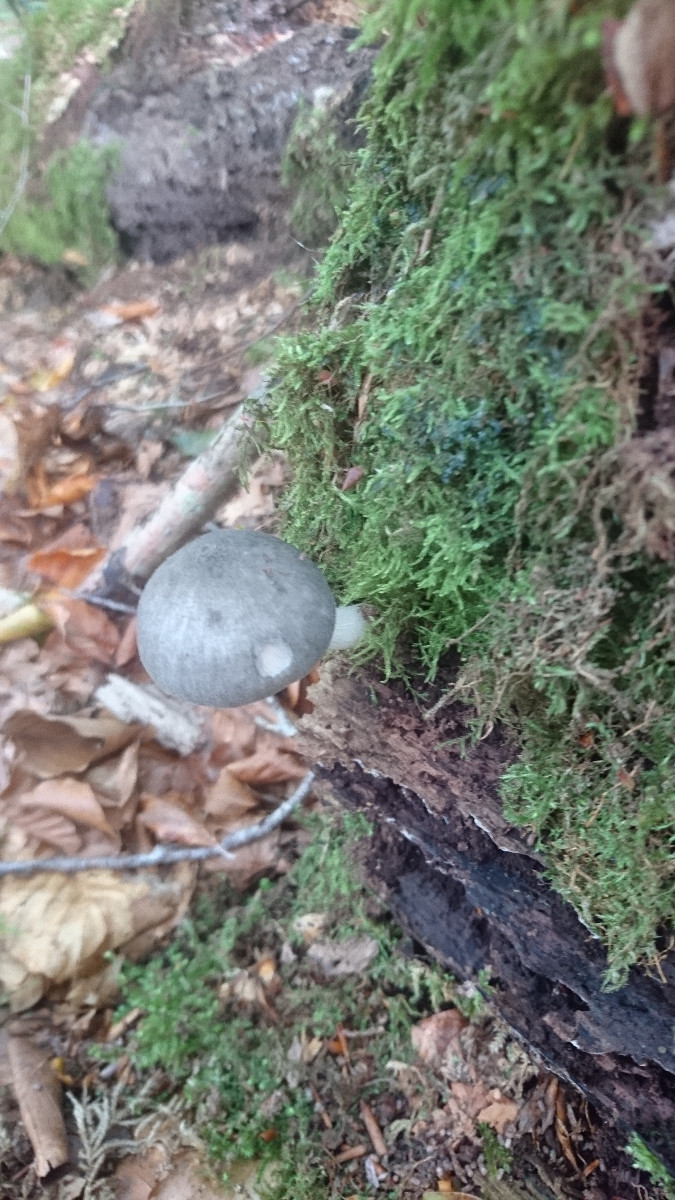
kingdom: Fungi
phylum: Basidiomycota
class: Agaricomycetes
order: Agaricales
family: Pluteaceae
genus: Pluteus
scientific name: Pluteus salicinus
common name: stiv skærmhat
